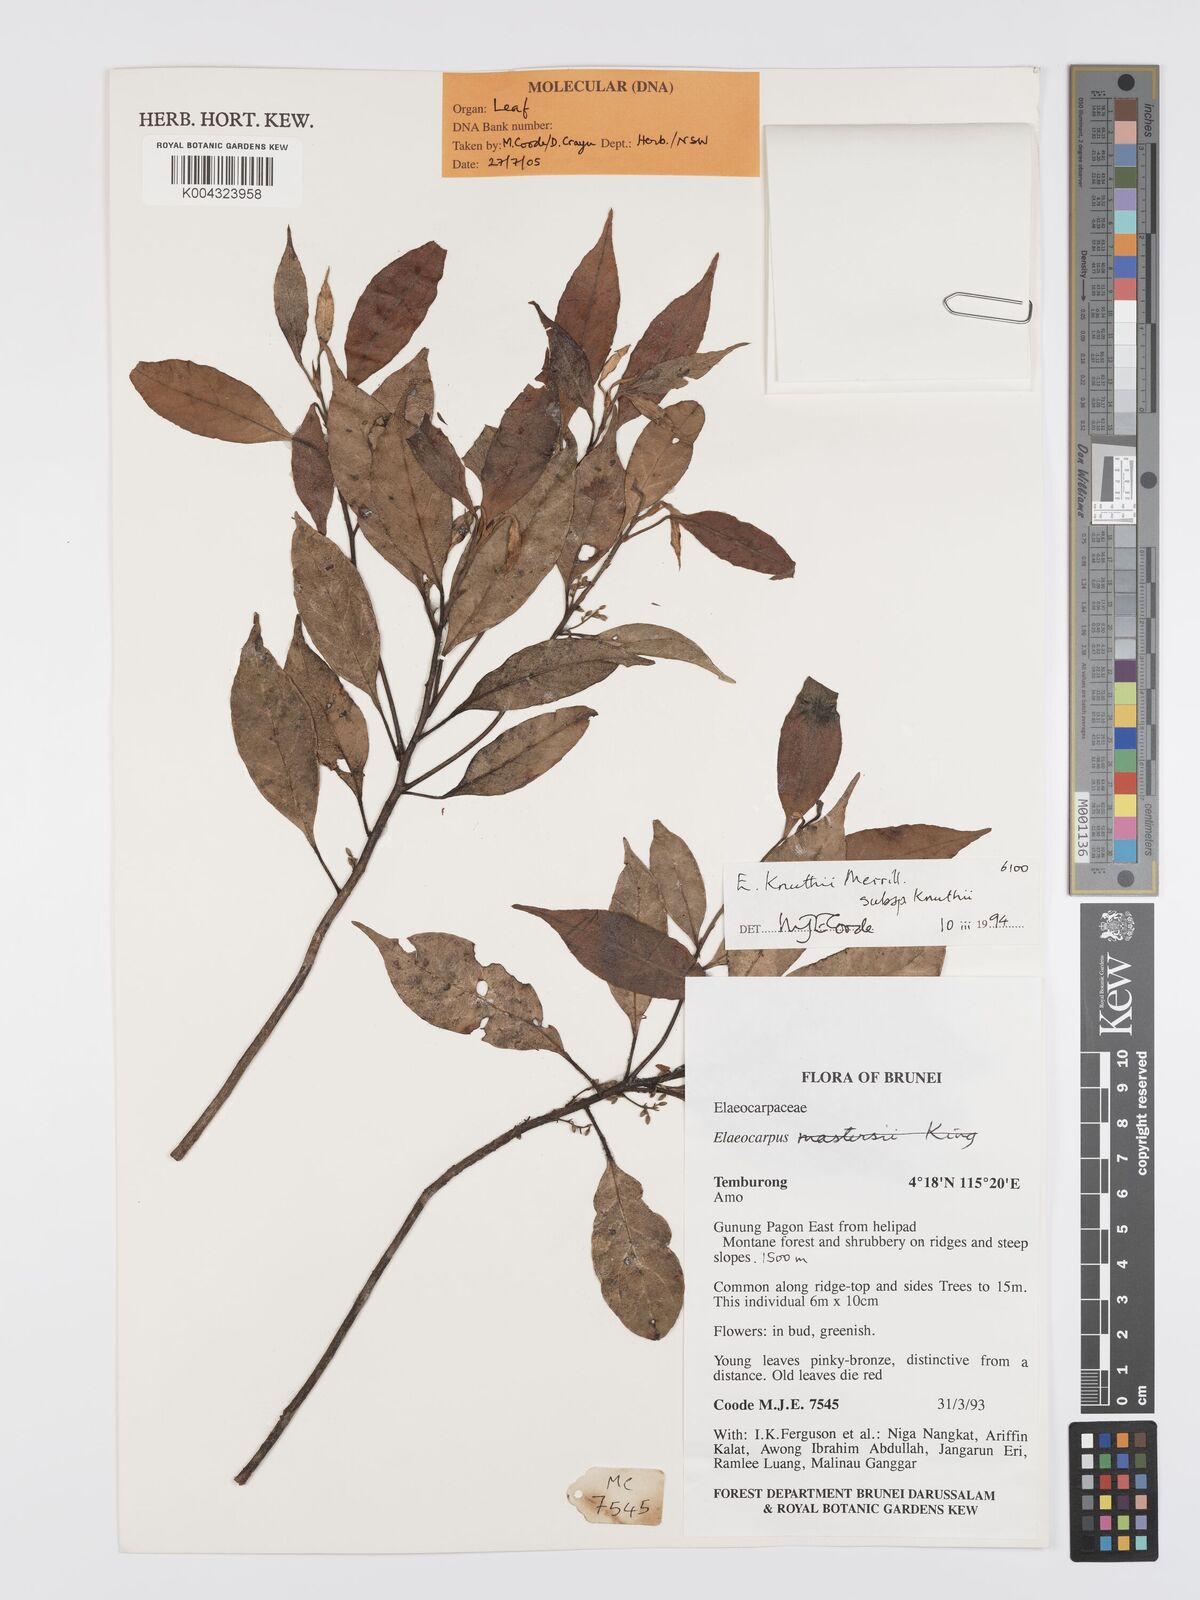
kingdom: Plantae
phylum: Tracheophyta
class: Magnoliopsida
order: Oxalidales
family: Elaeocarpaceae
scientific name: Elaeocarpaceae
